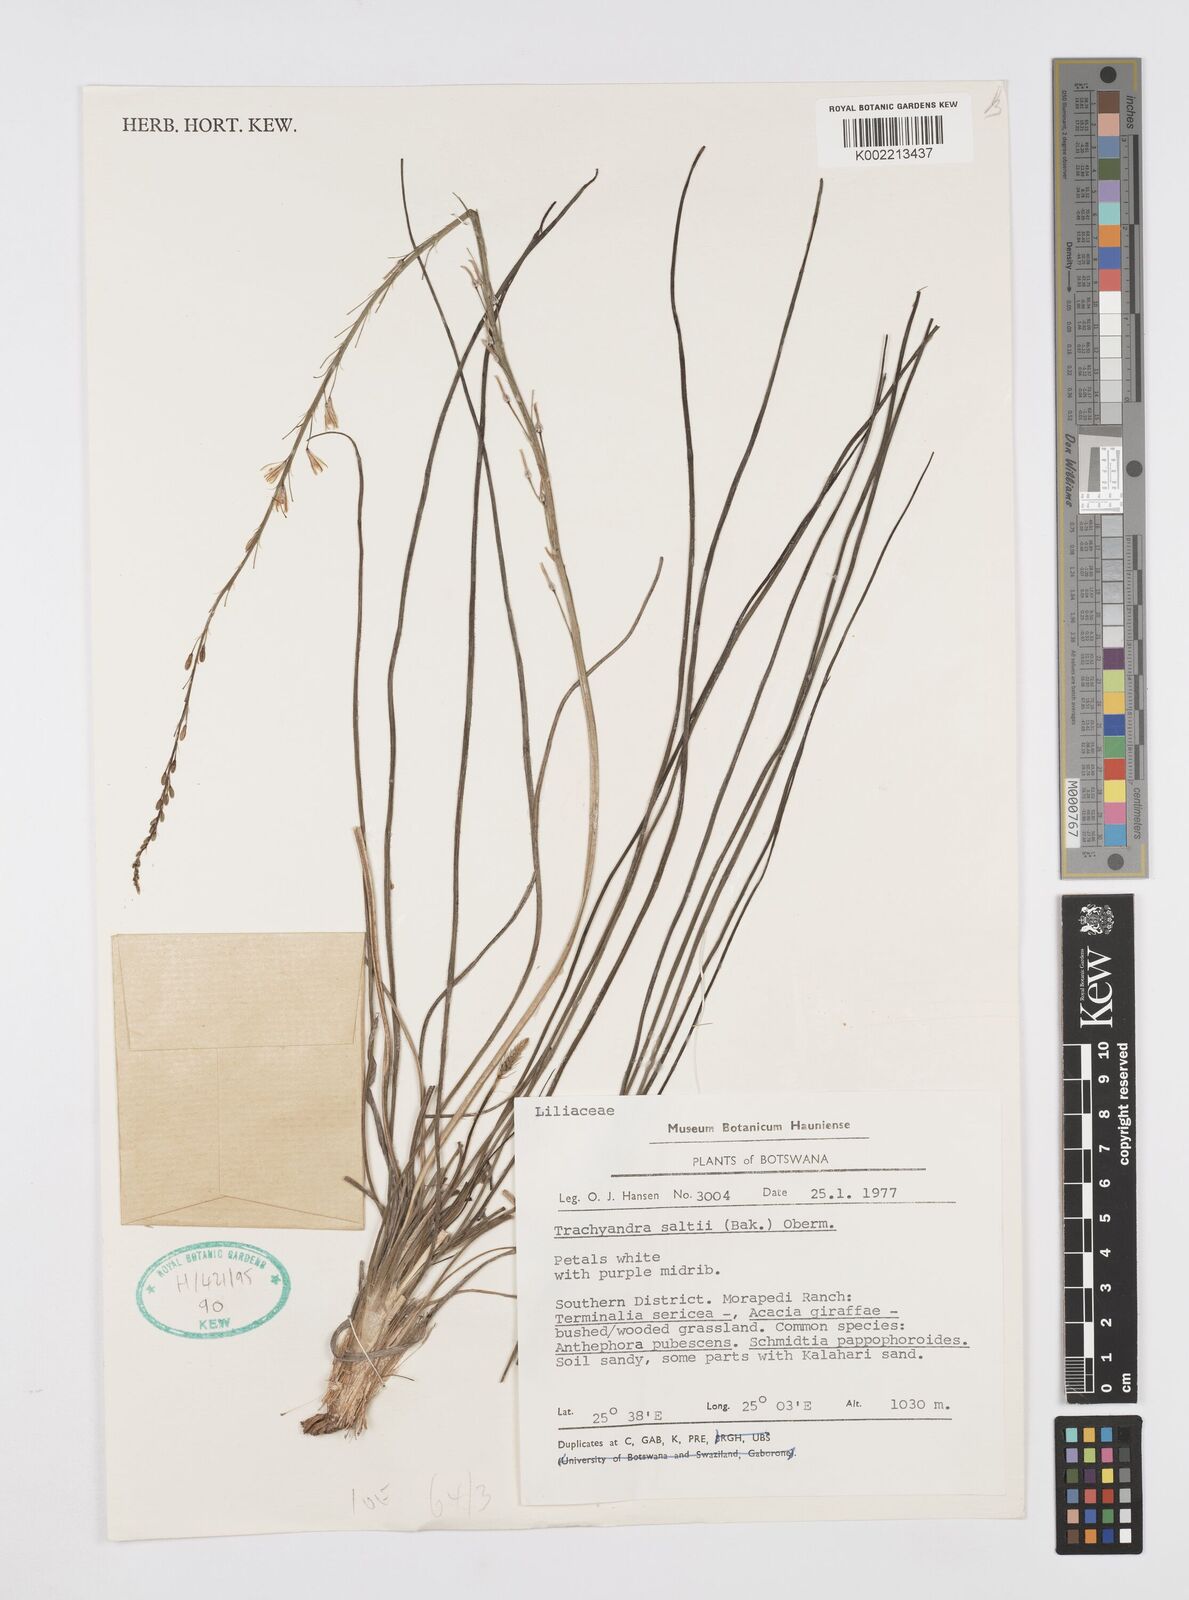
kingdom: Plantae
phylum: Tracheophyta
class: Liliopsida
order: Asparagales
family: Asphodelaceae
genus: Trachyandra
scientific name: Trachyandra saltii
